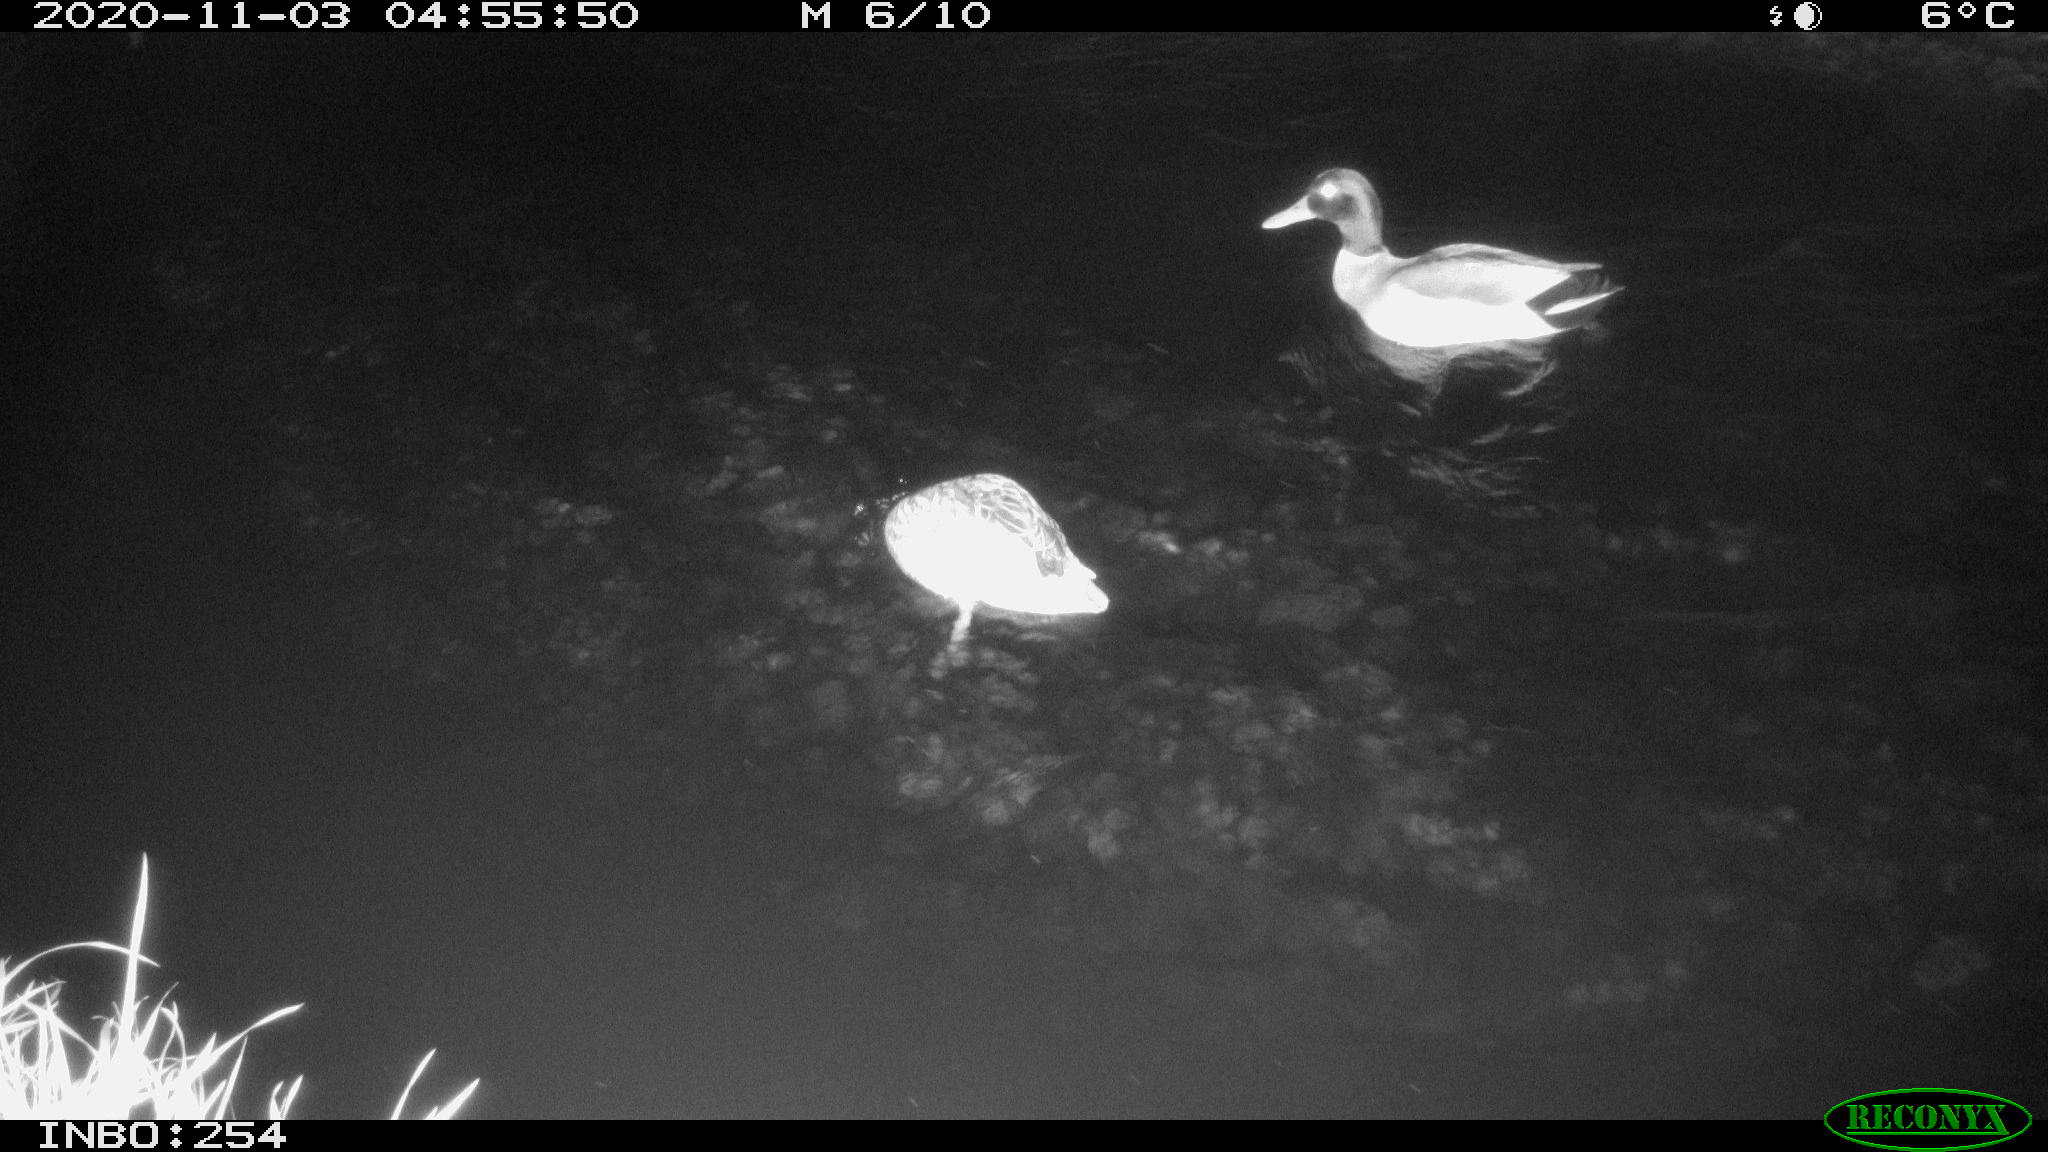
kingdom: Animalia
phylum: Chordata
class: Aves
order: Anseriformes
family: Anatidae
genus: Anas
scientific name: Anas platyrhynchos
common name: Mallard
